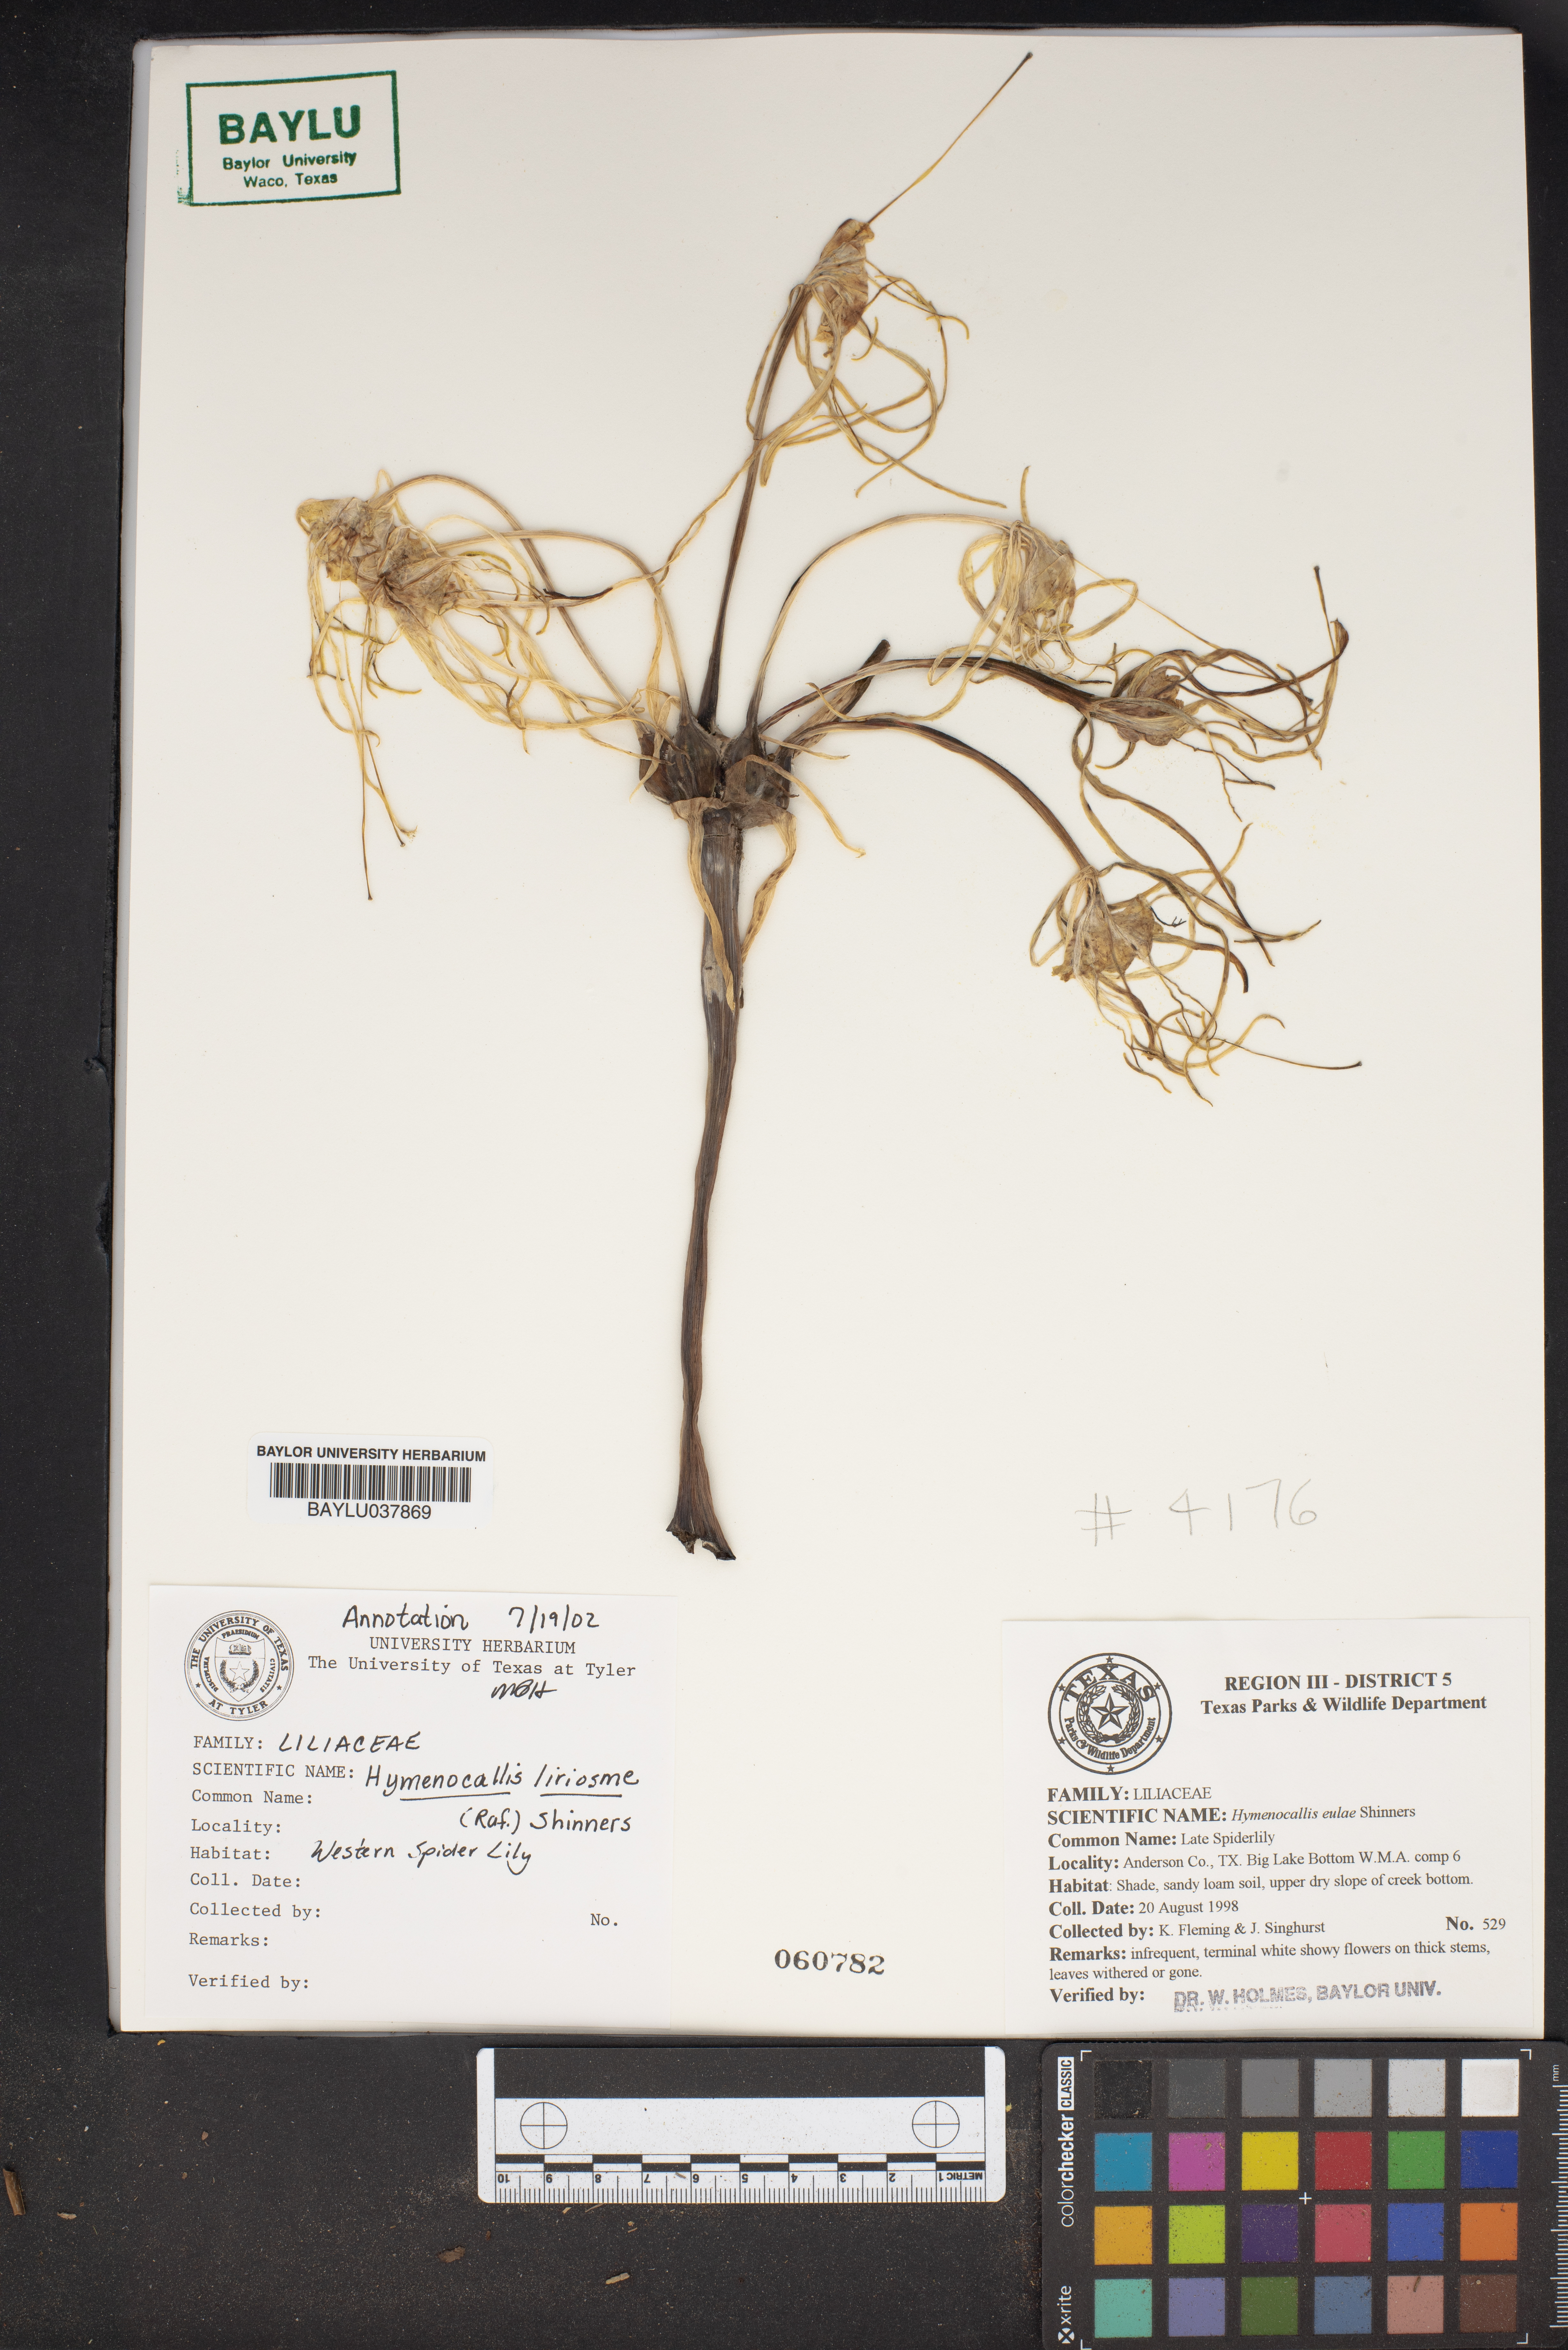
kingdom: Plantae
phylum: Tracheophyta
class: Liliopsida
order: Asparagales
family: Amaryllidaceae
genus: Hymenocallis
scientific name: Hymenocallis liriosme
